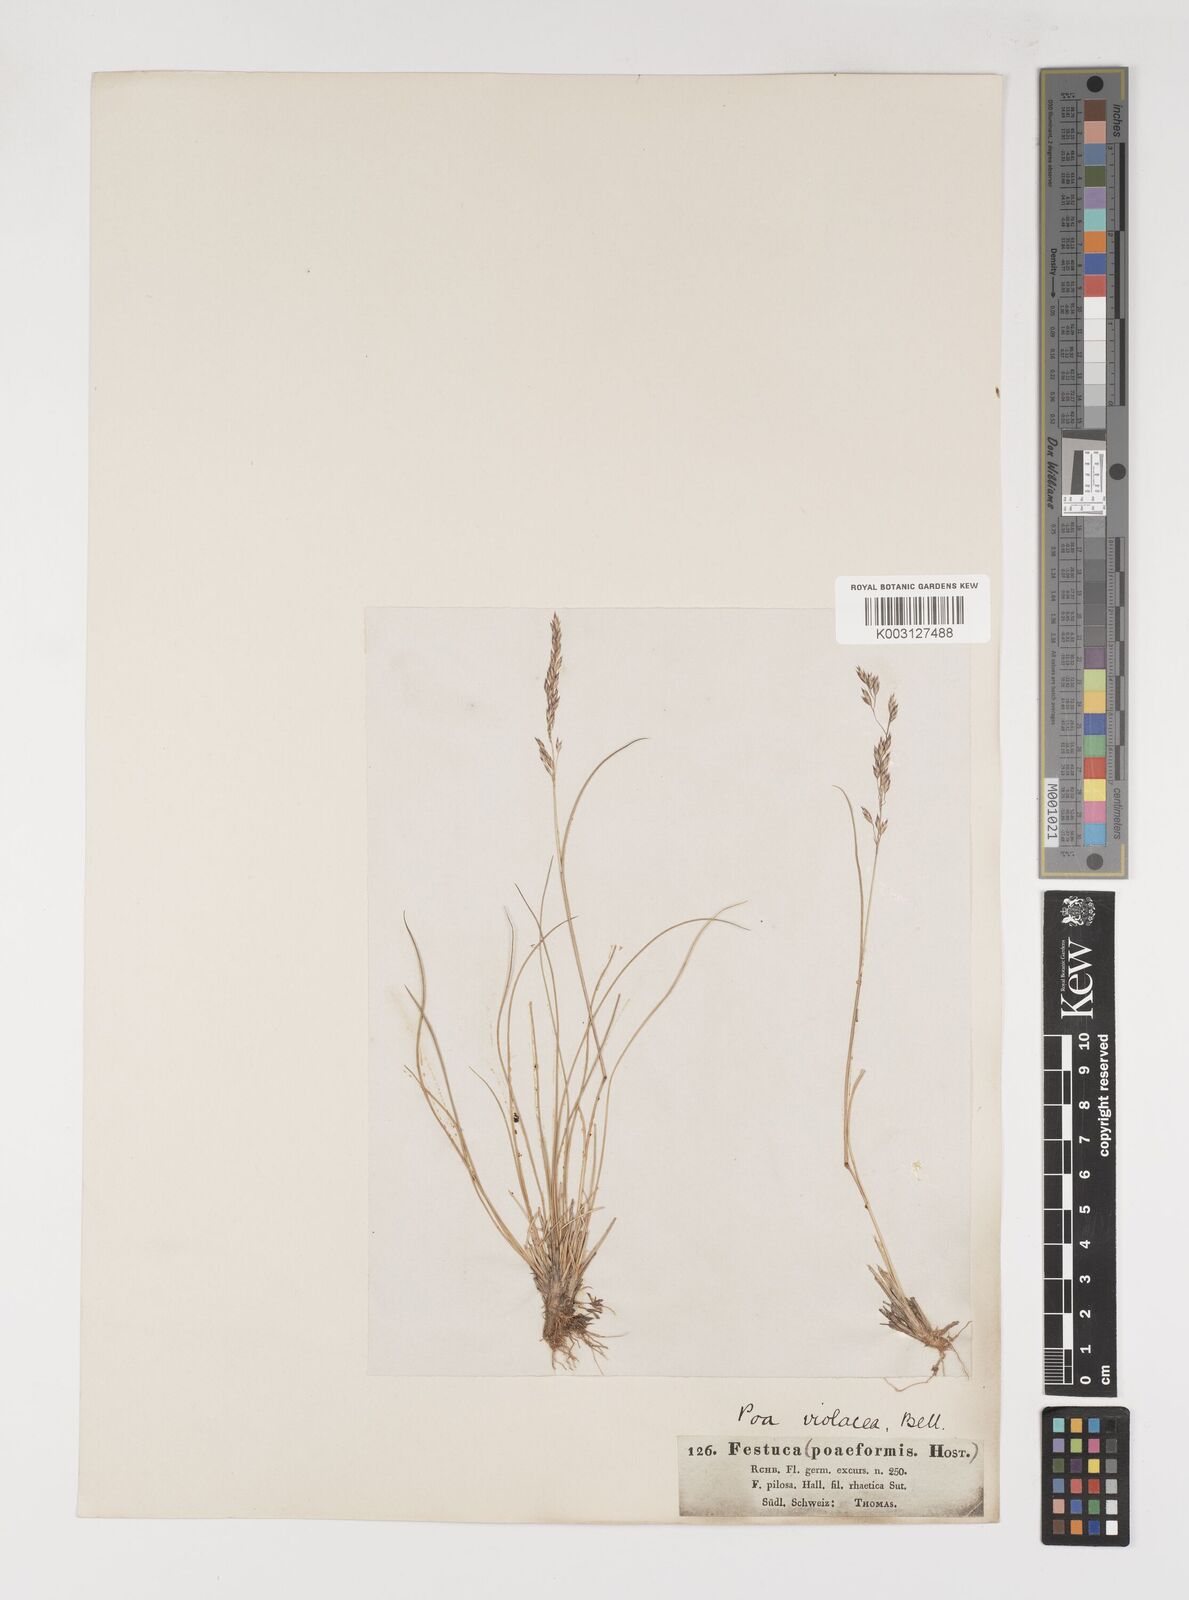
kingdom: Plantae
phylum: Tracheophyta
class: Liliopsida
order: Poales
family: Poaceae
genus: Bellardiochloa
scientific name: Bellardiochloa variegata
